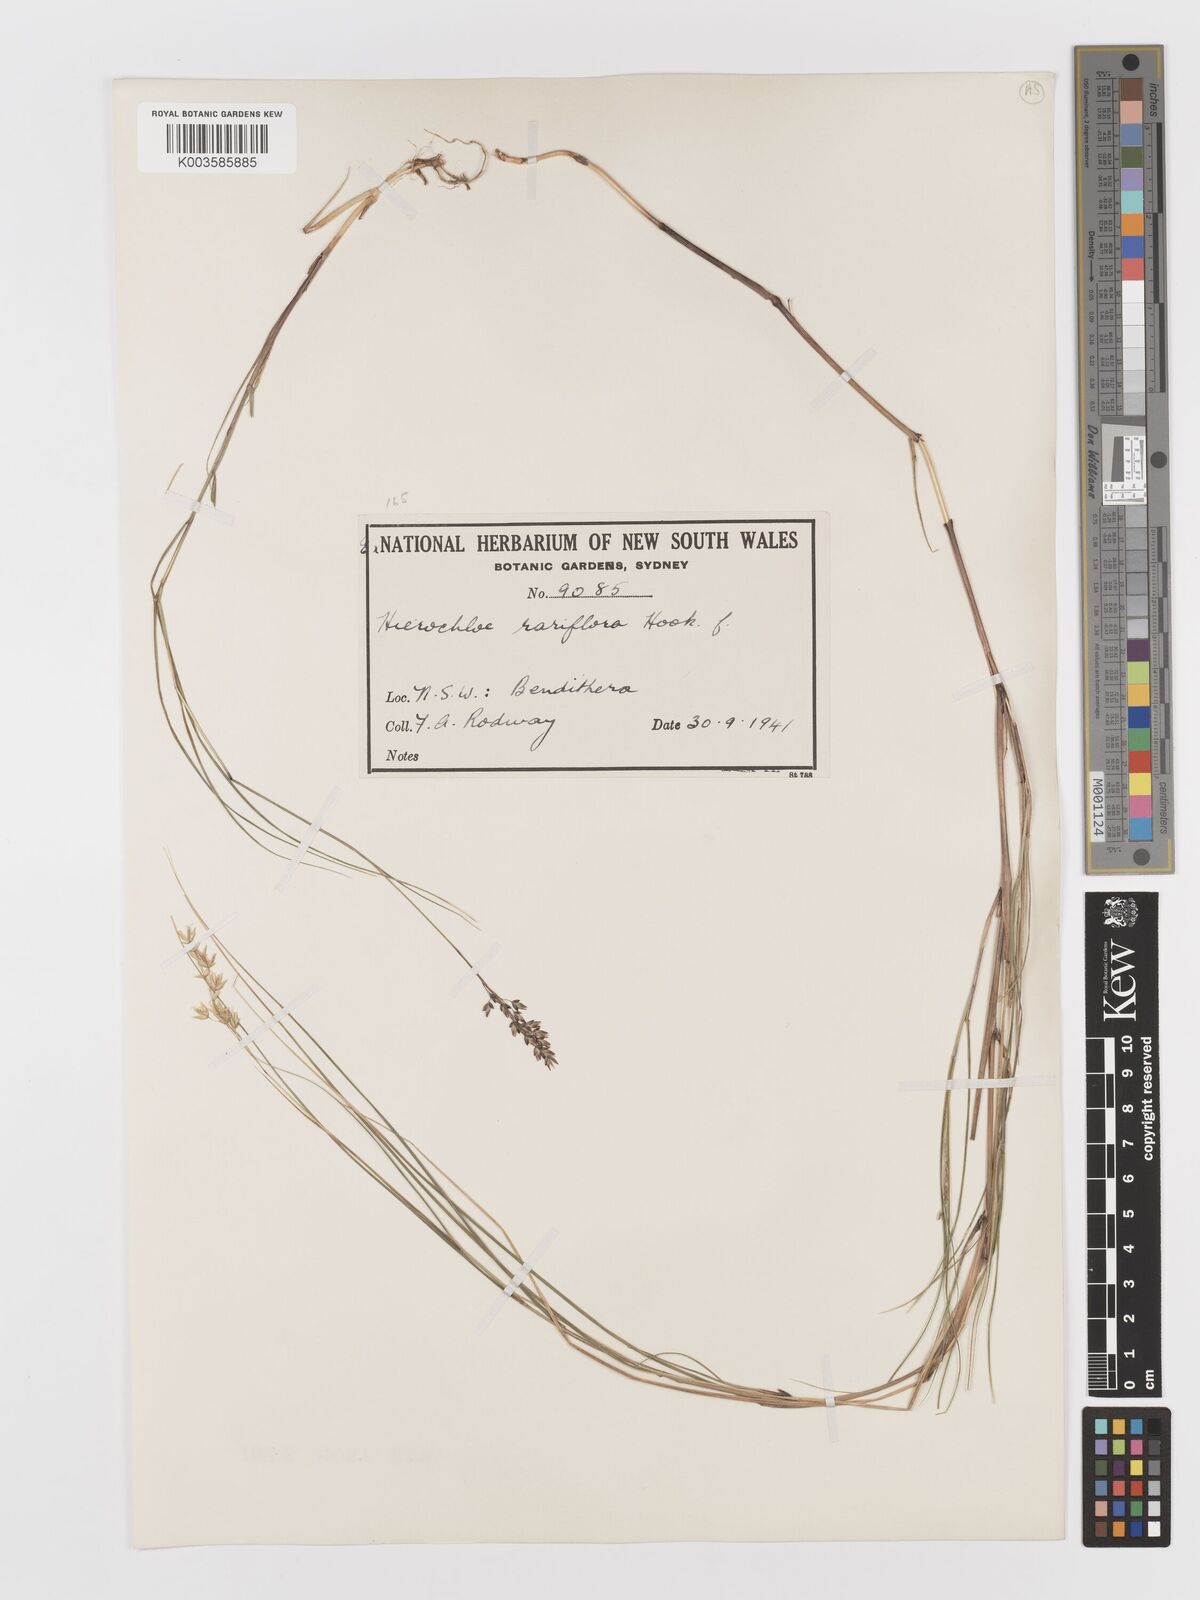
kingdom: Plantae
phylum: Tracheophyta
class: Liliopsida
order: Poales
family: Poaceae
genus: Anthoxanthum
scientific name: Anthoxanthum rariflorum
